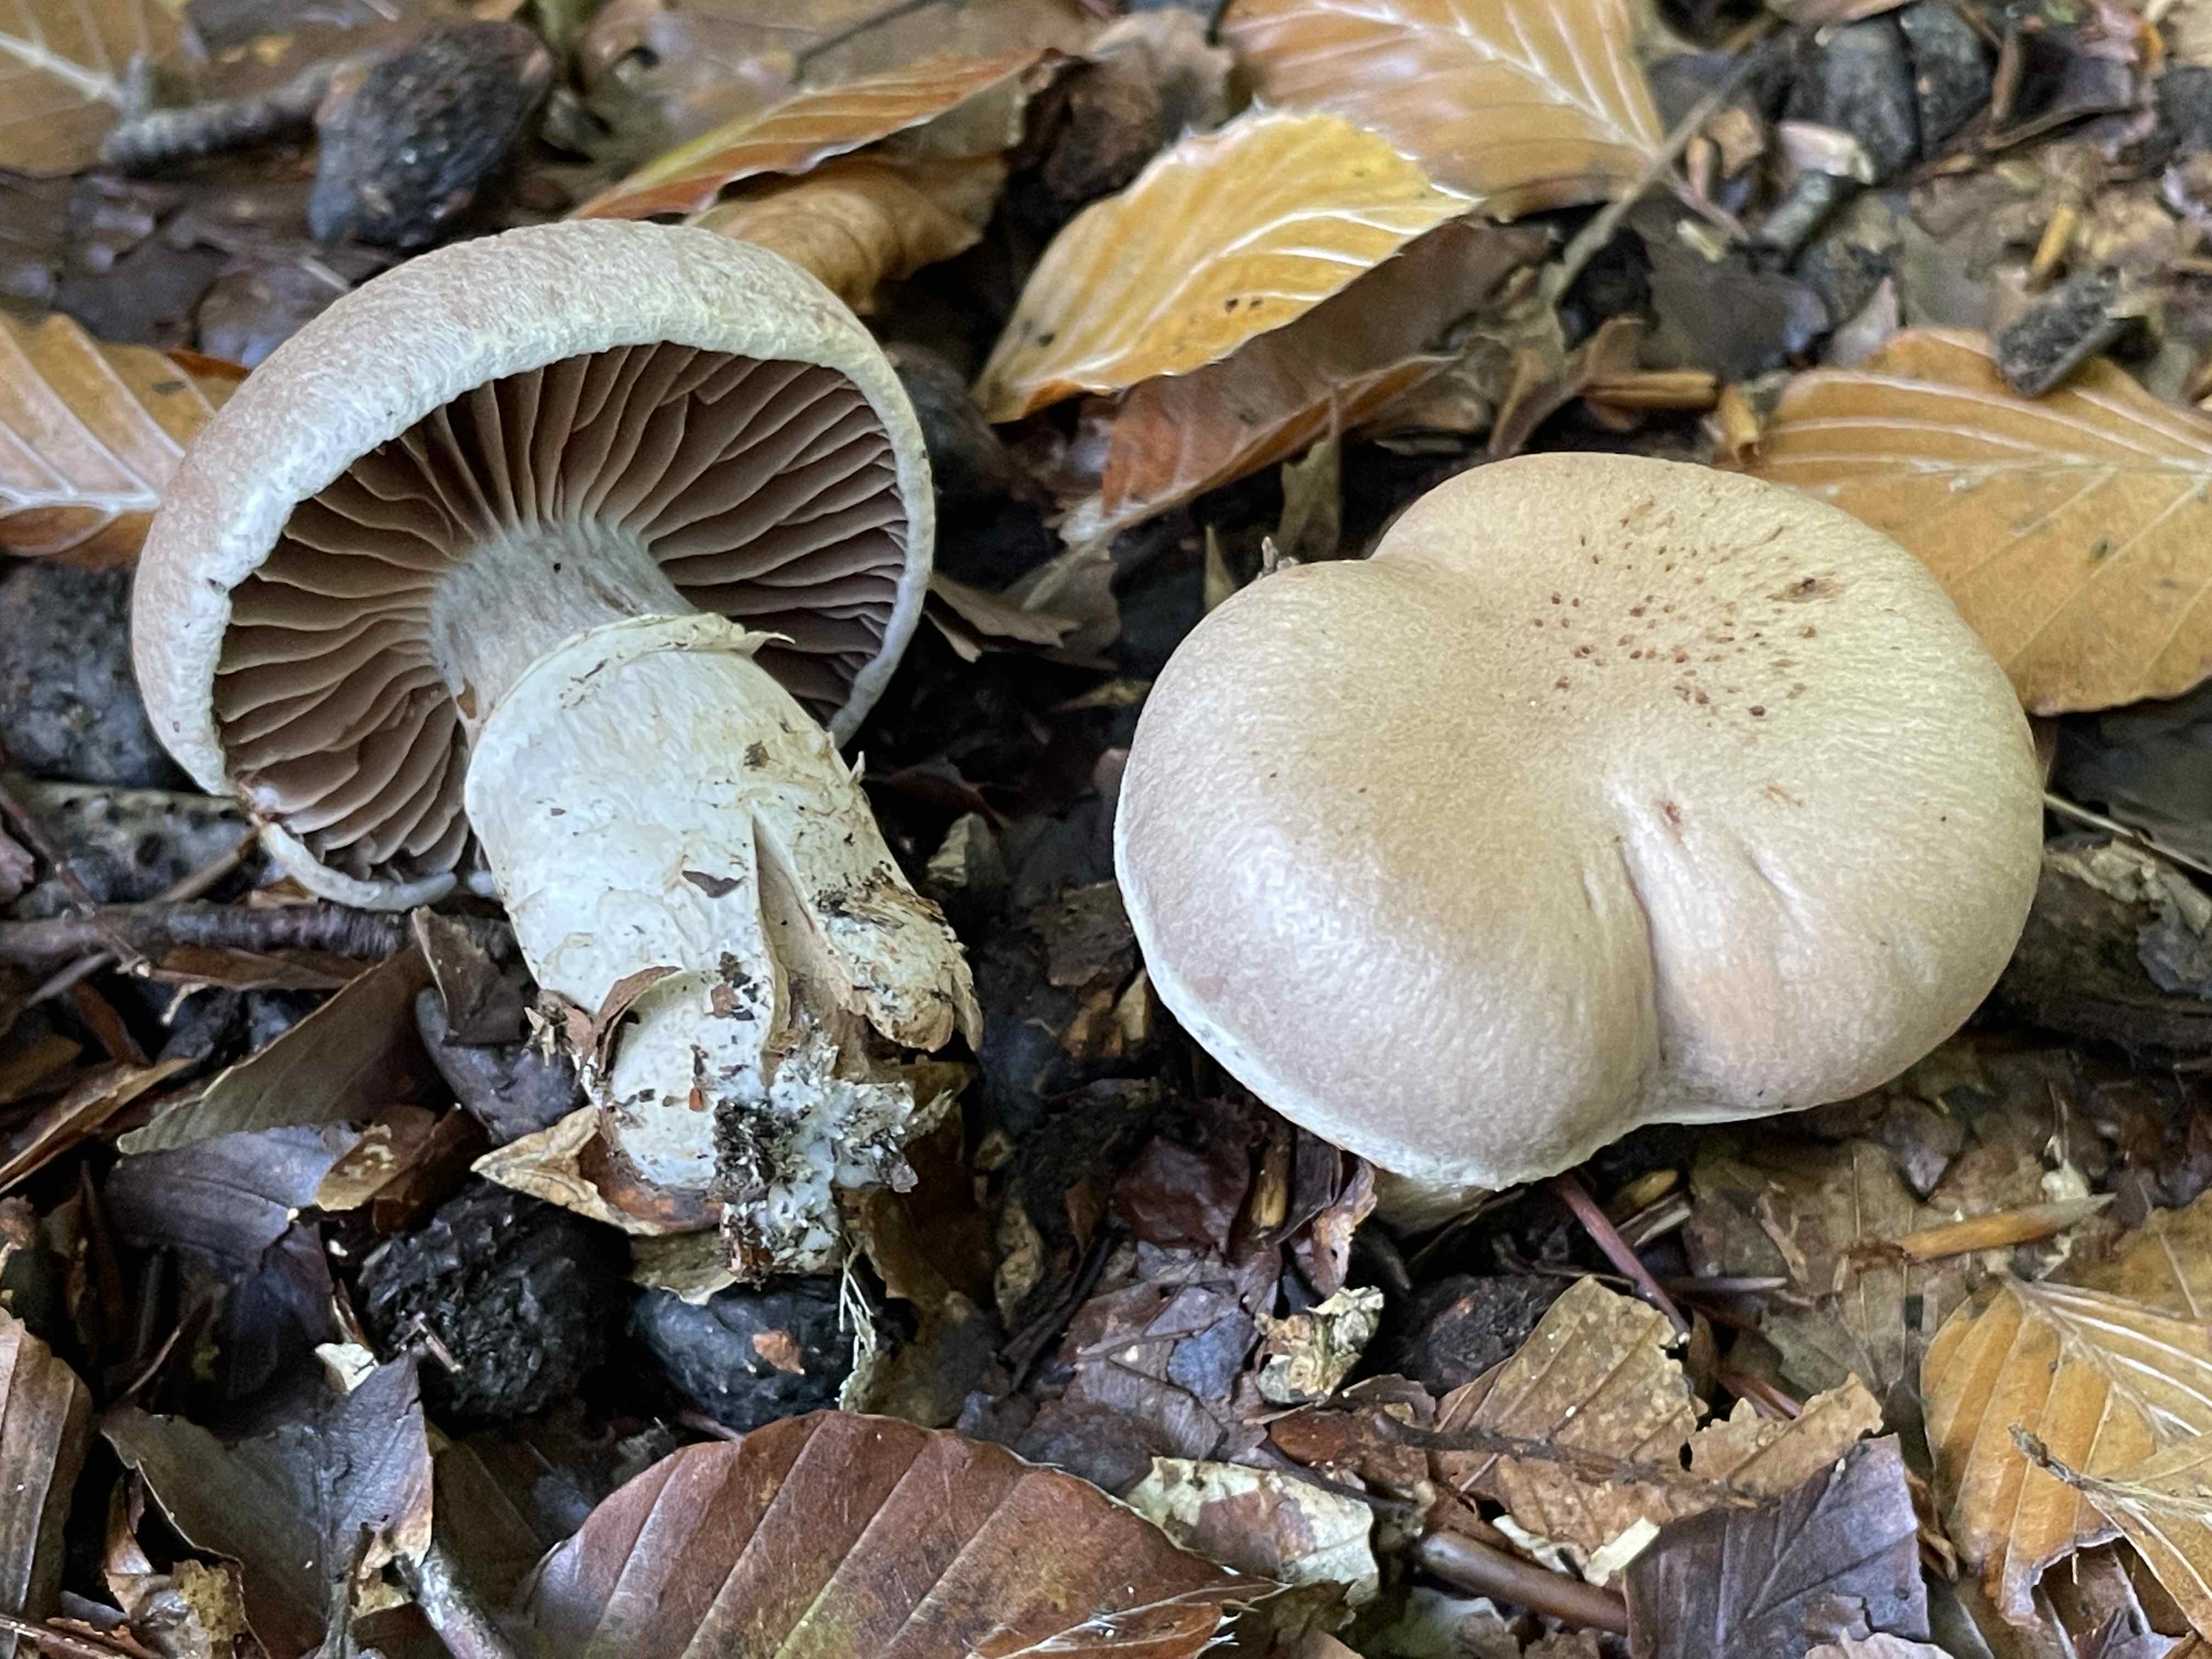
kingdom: Fungi
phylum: Basidiomycota
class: Agaricomycetes
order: Agaricales
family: Cortinariaceae
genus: Cortinarius
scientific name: Cortinarius torvus
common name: champignonagtig slørhat
